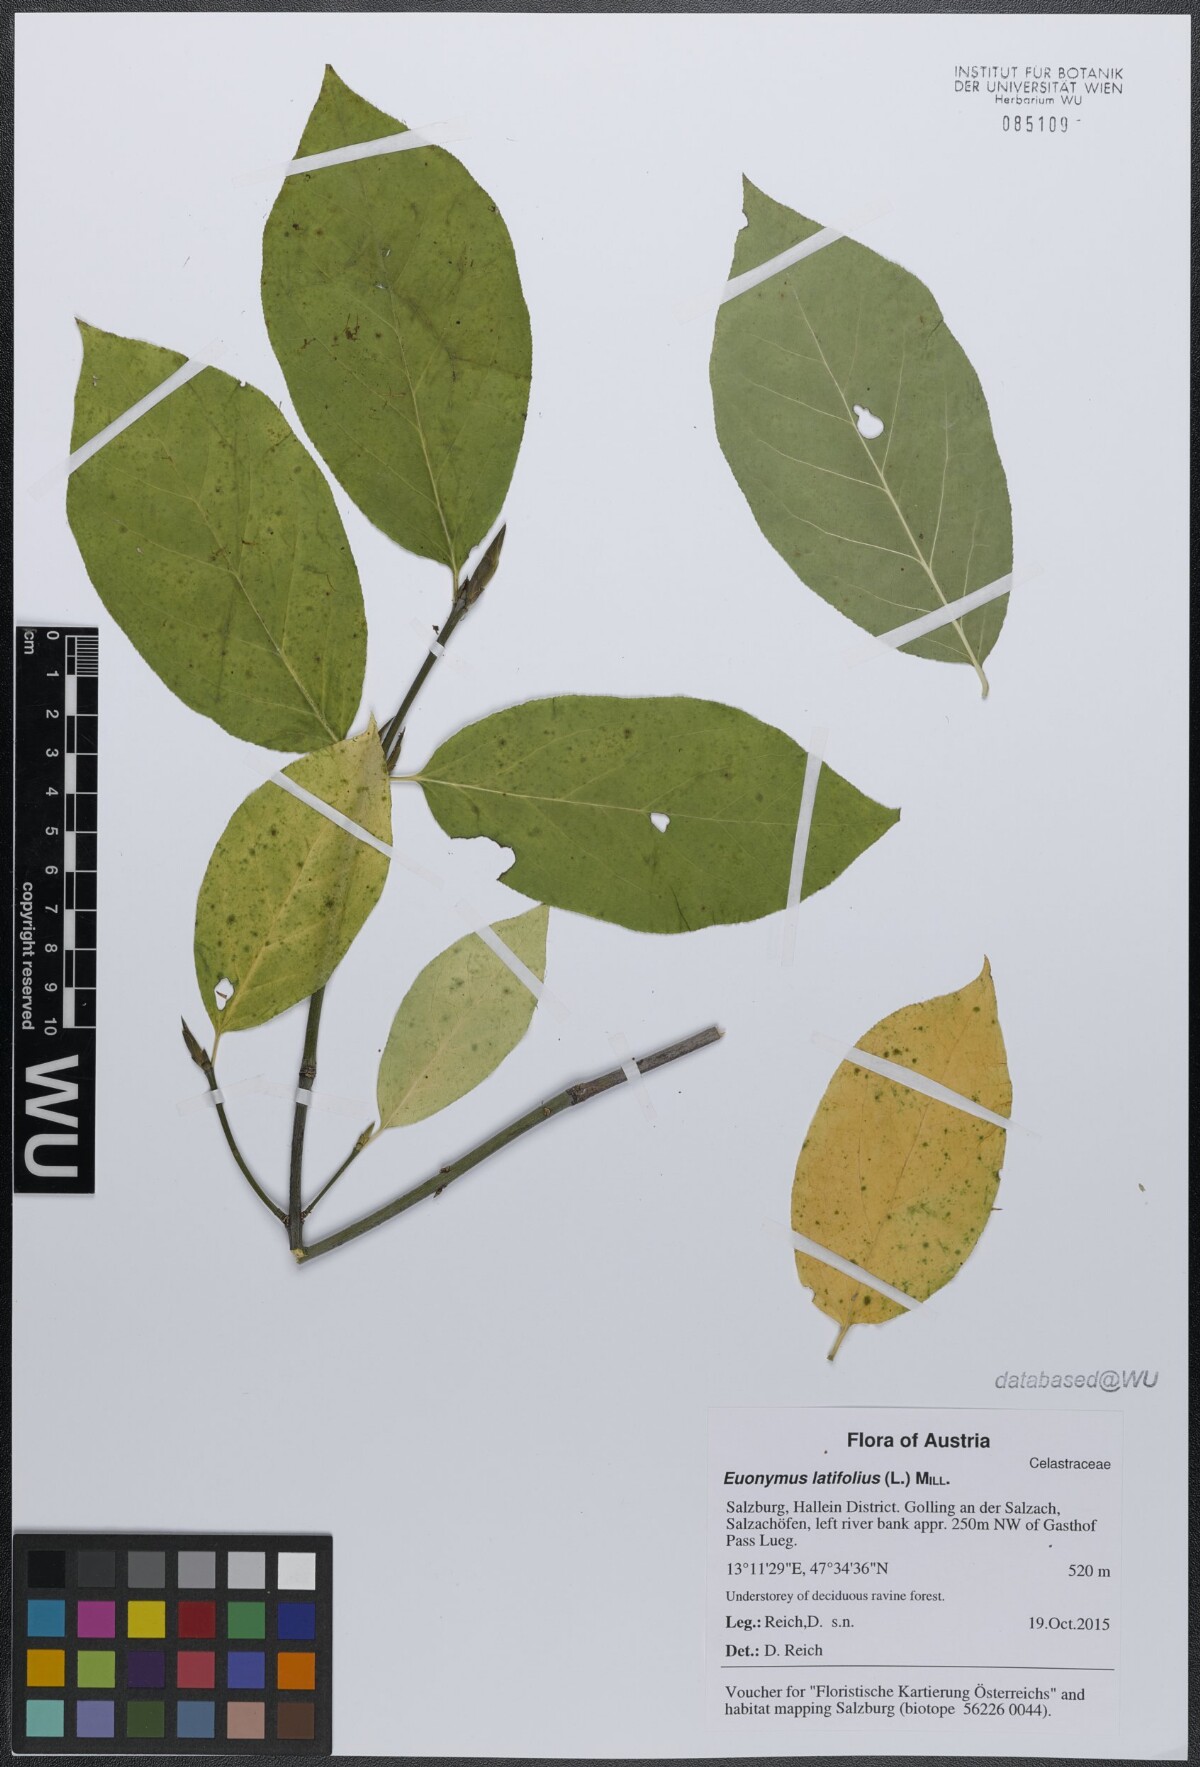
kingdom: Plantae
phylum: Tracheophyta
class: Magnoliopsida
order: Celastrales
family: Celastraceae
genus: Euonymus
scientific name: Euonymus latifolius
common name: Large-leaved spindle
